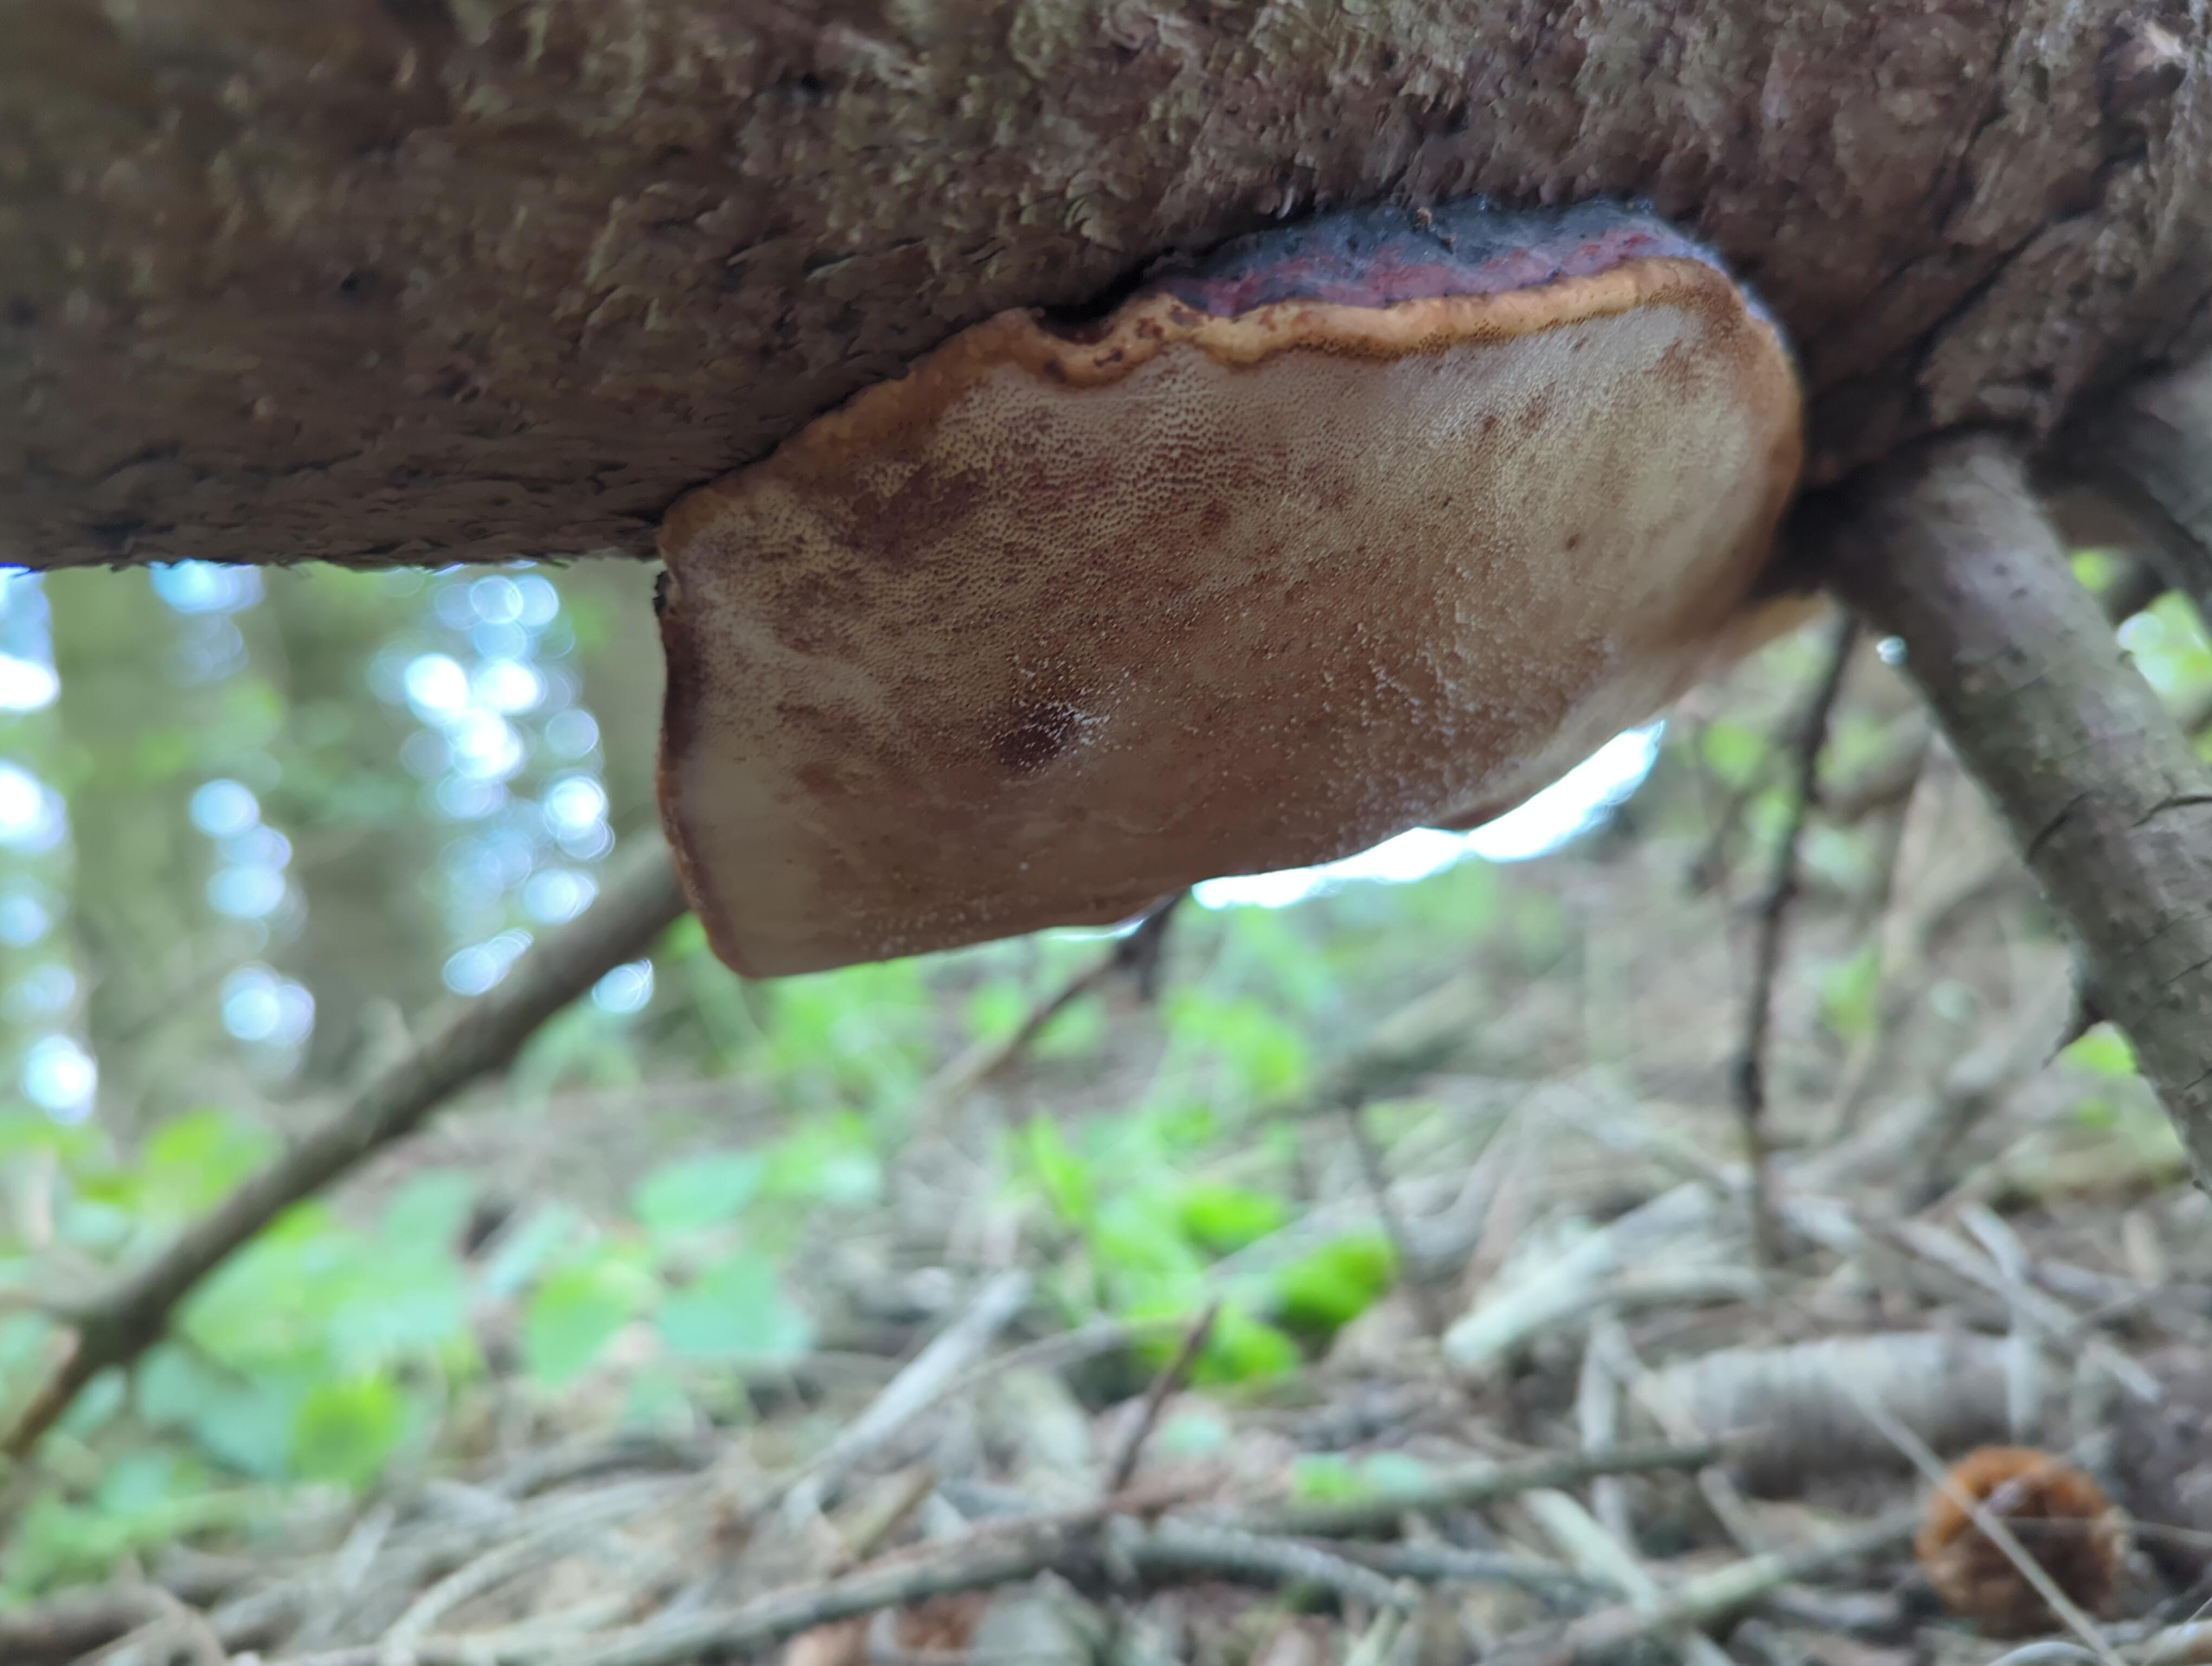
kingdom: Fungi
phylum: Basidiomycota
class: Agaricomycetes
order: Polyporales
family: Fomitopsidaceae
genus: Fomitopsis
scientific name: Fomitopsis pinicola
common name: randbæltet hovporesvamp
